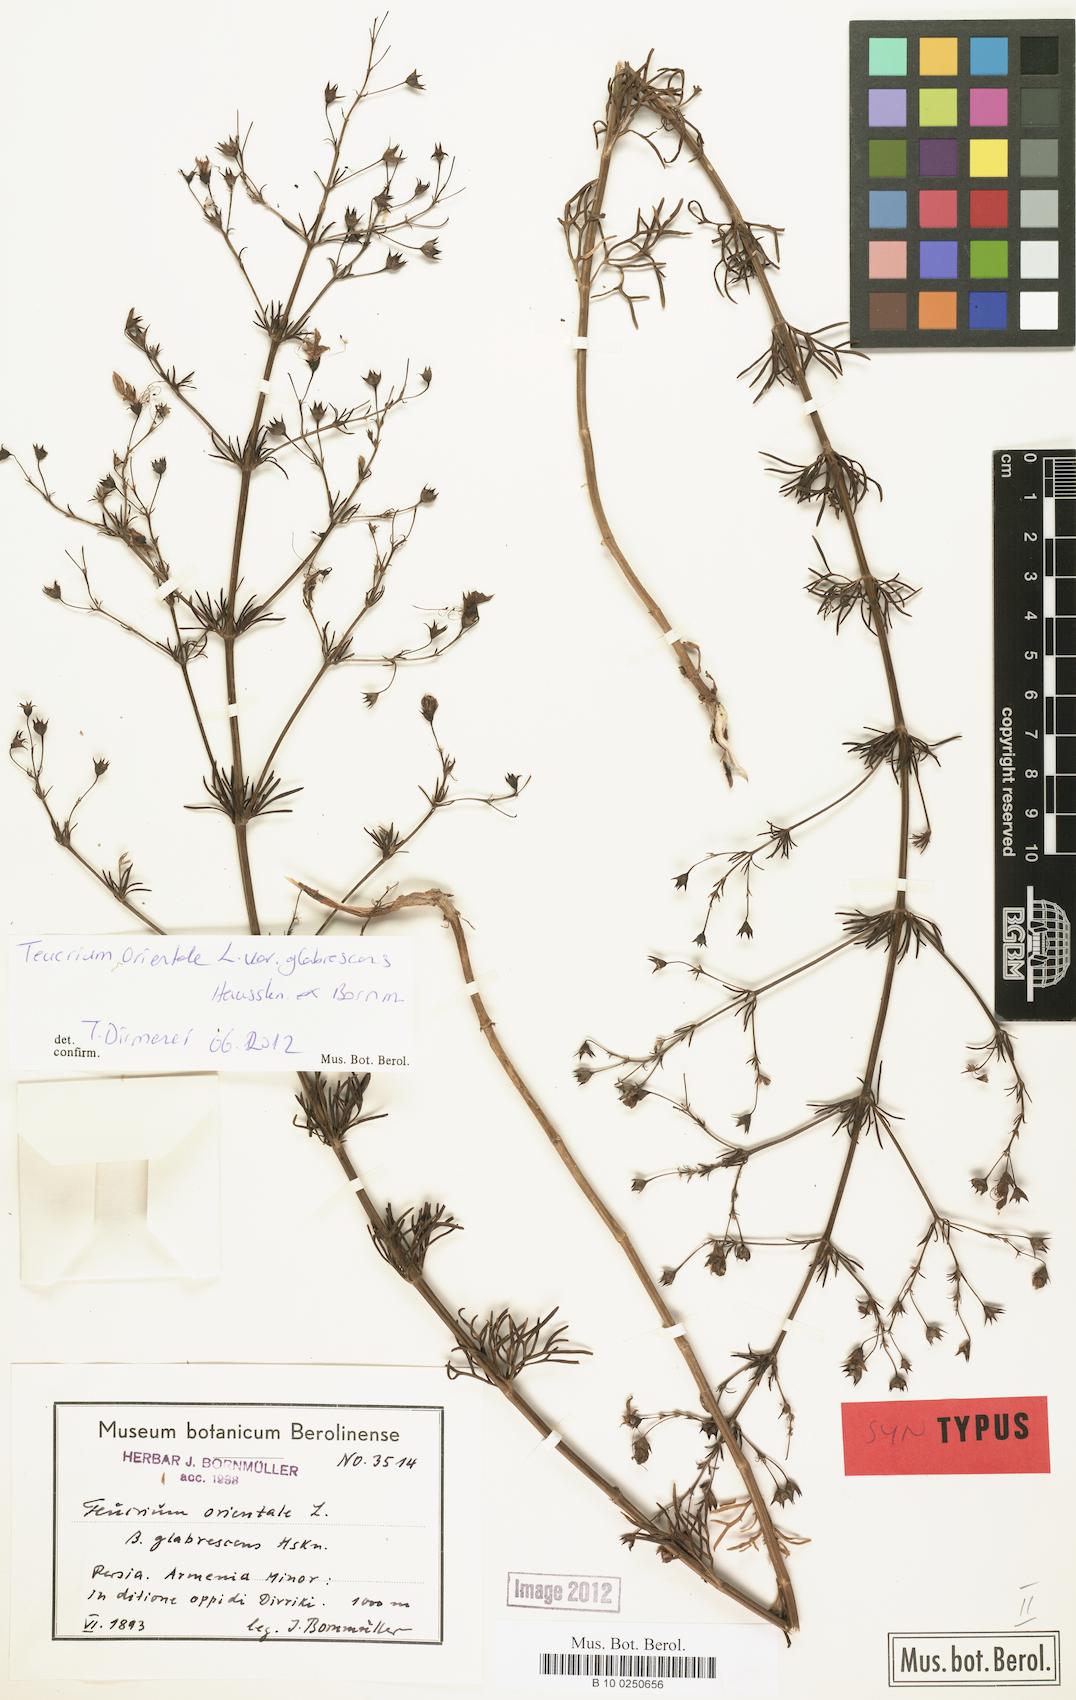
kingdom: Plantae
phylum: Tracheophyta
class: Magnoliopsida
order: Lamiales
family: Lamiaceae
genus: Teucrium
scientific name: Teucrium orientale
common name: Oriental germander
